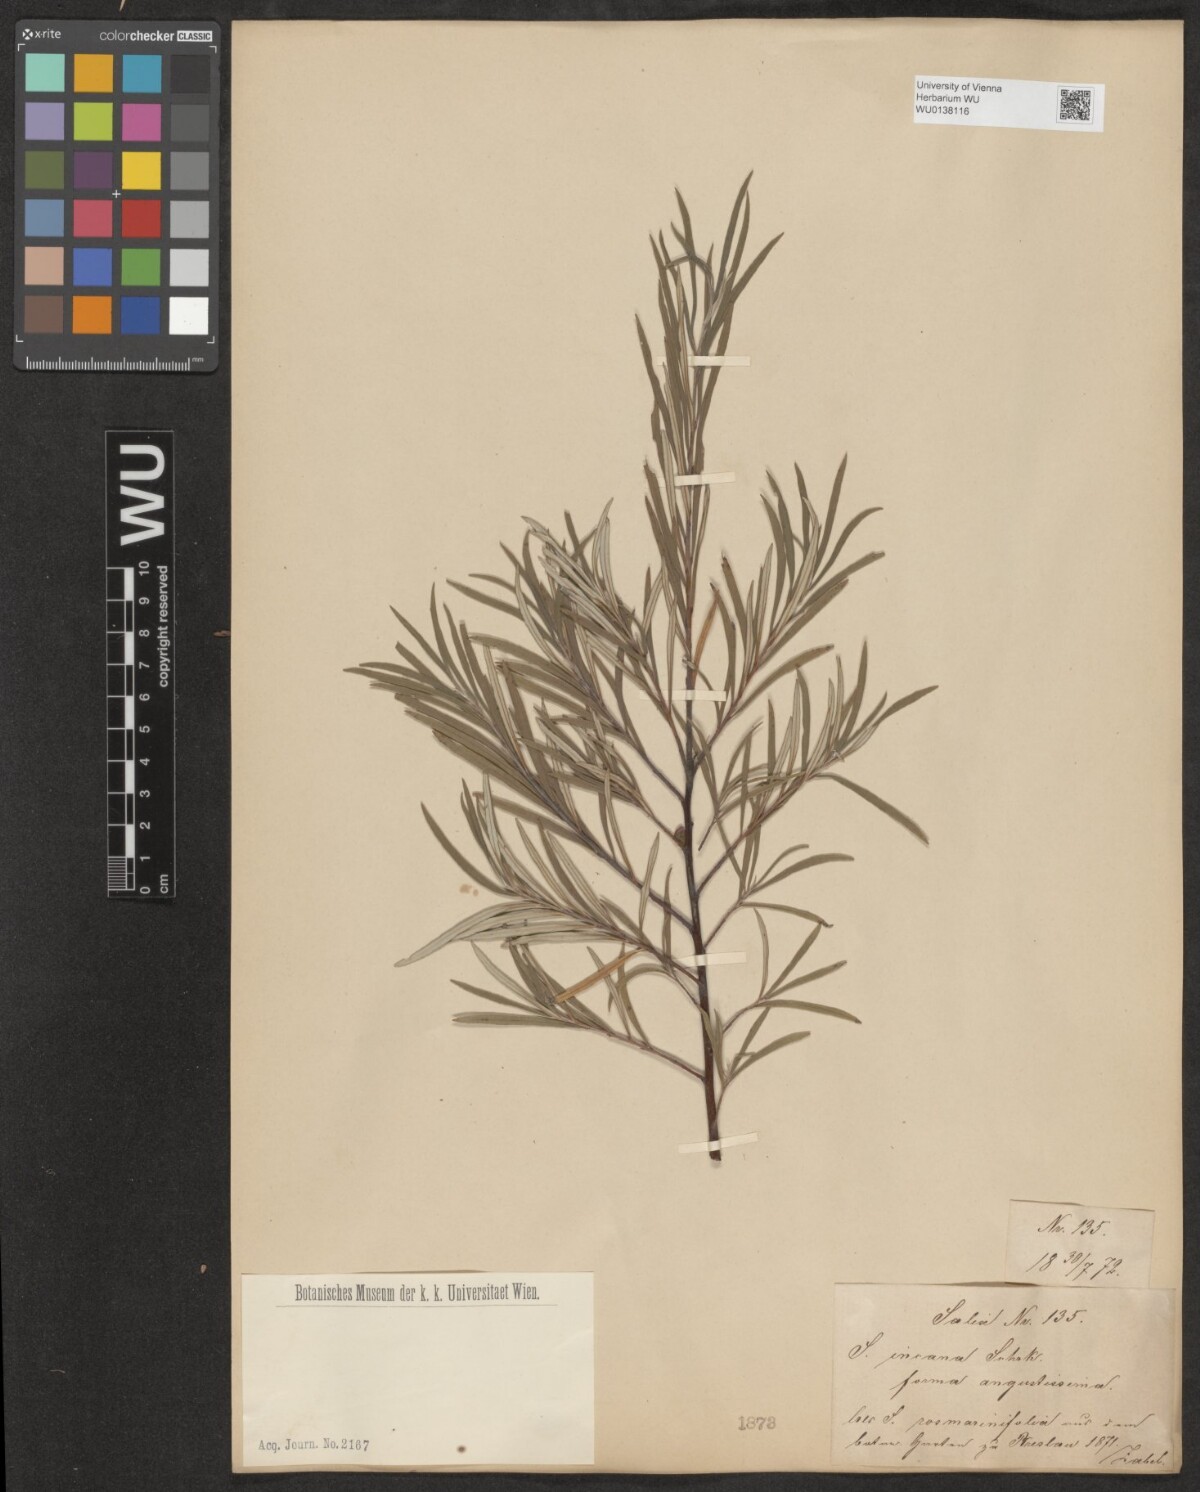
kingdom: Plantae
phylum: Tracheophyta
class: Magnoliopsida
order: Malpighiales
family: Salicaceae
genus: Salix
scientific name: Salix eleagnos
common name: Elaeagnus willow
